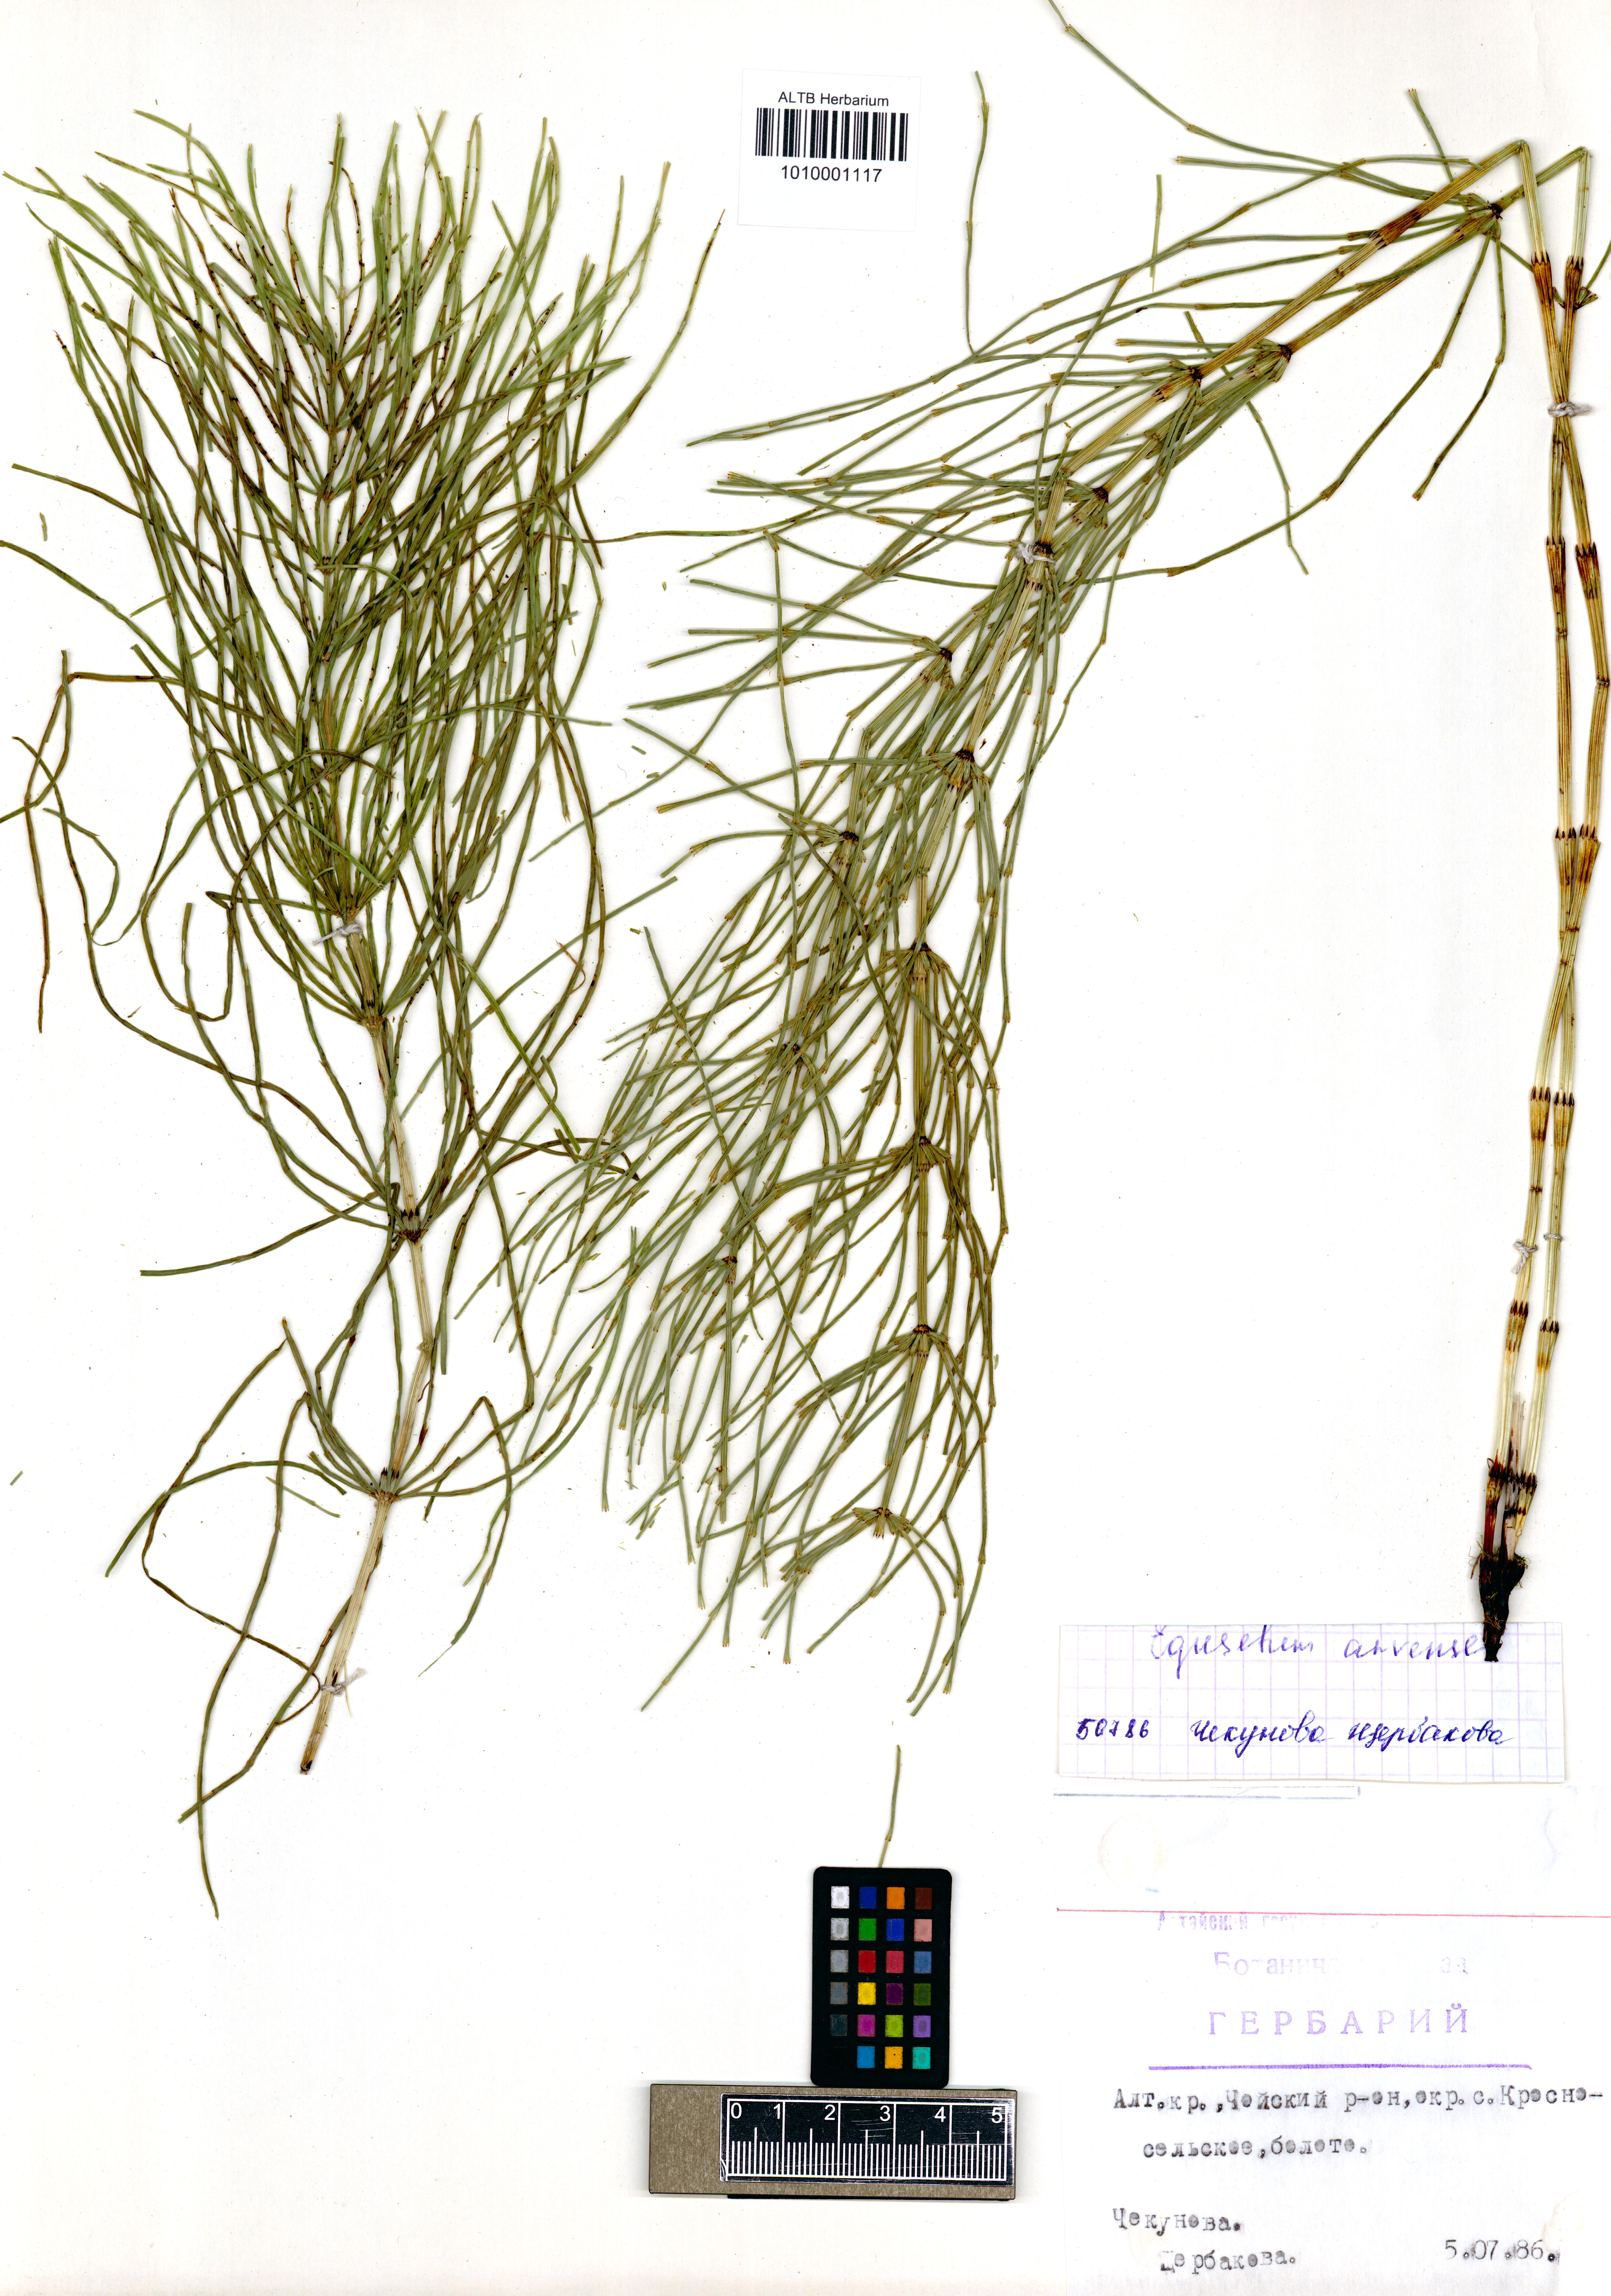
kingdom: Plantae
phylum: Tracheophyta
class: Polypodiopsida
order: Equisetales
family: Equisetaceae
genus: Equisetum
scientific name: Equisetum arvense
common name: Field horsetail
